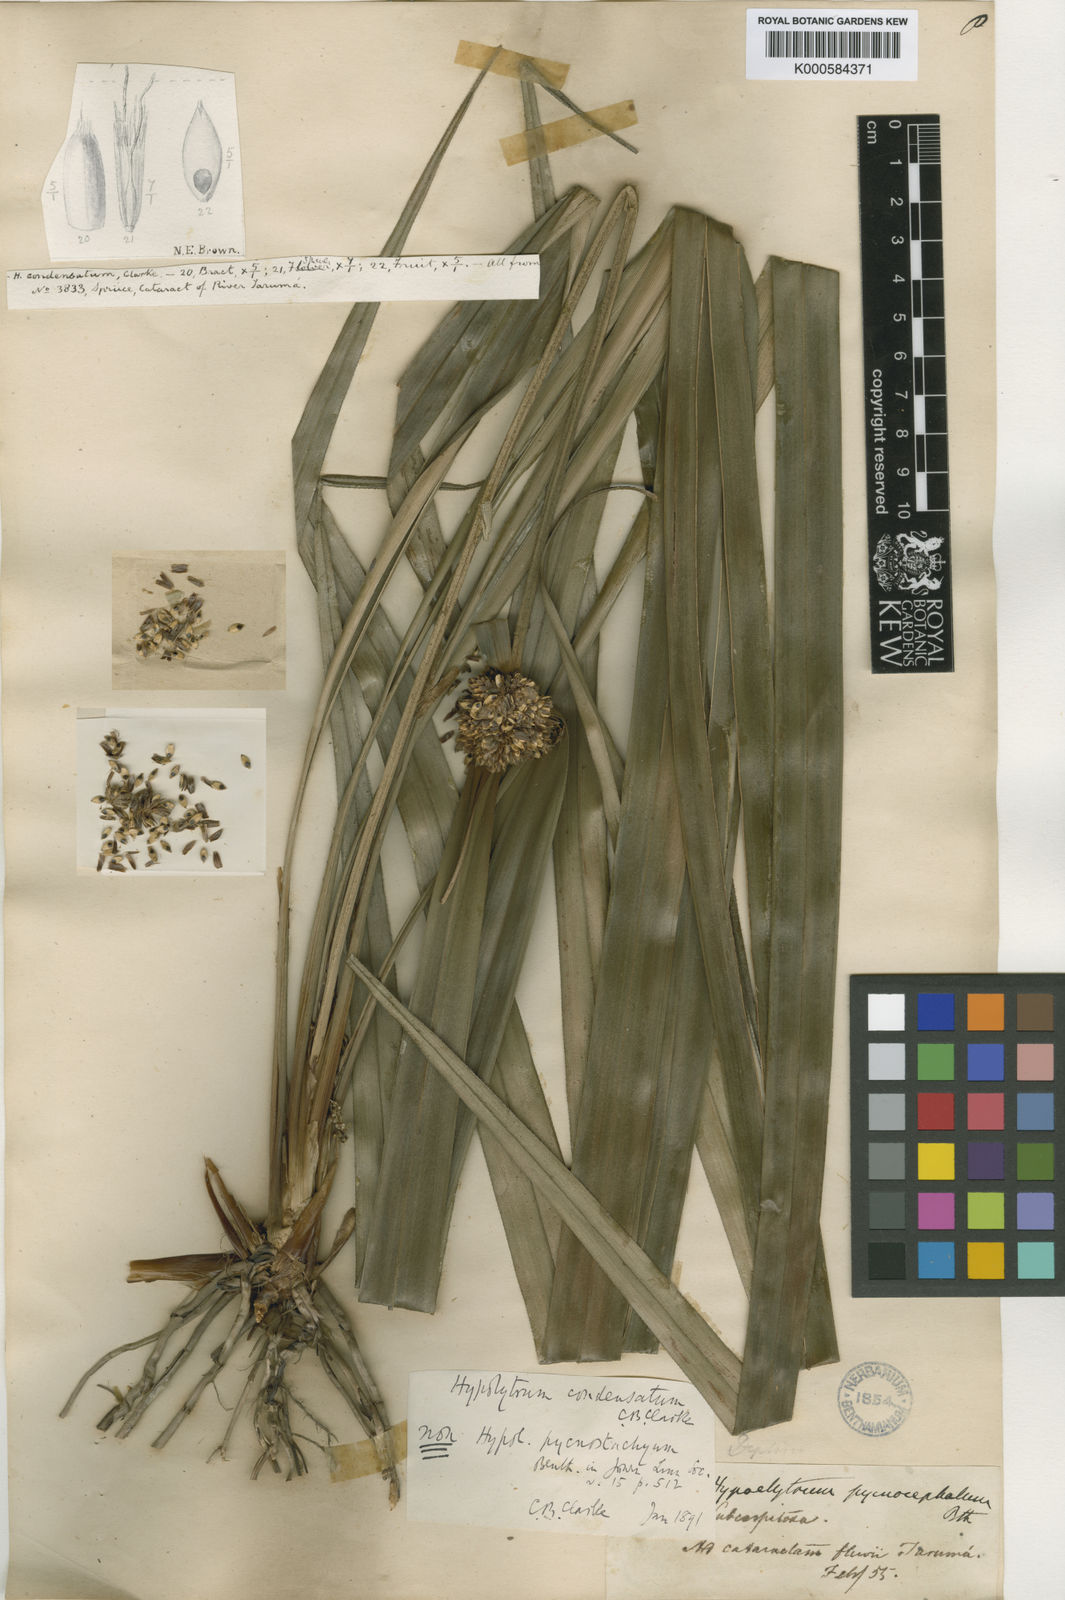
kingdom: Plantae
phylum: Tracheophyta
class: Liliopsida
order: Poales
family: Cyperaceae
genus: Mapania
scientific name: Mapania pycnostachya
